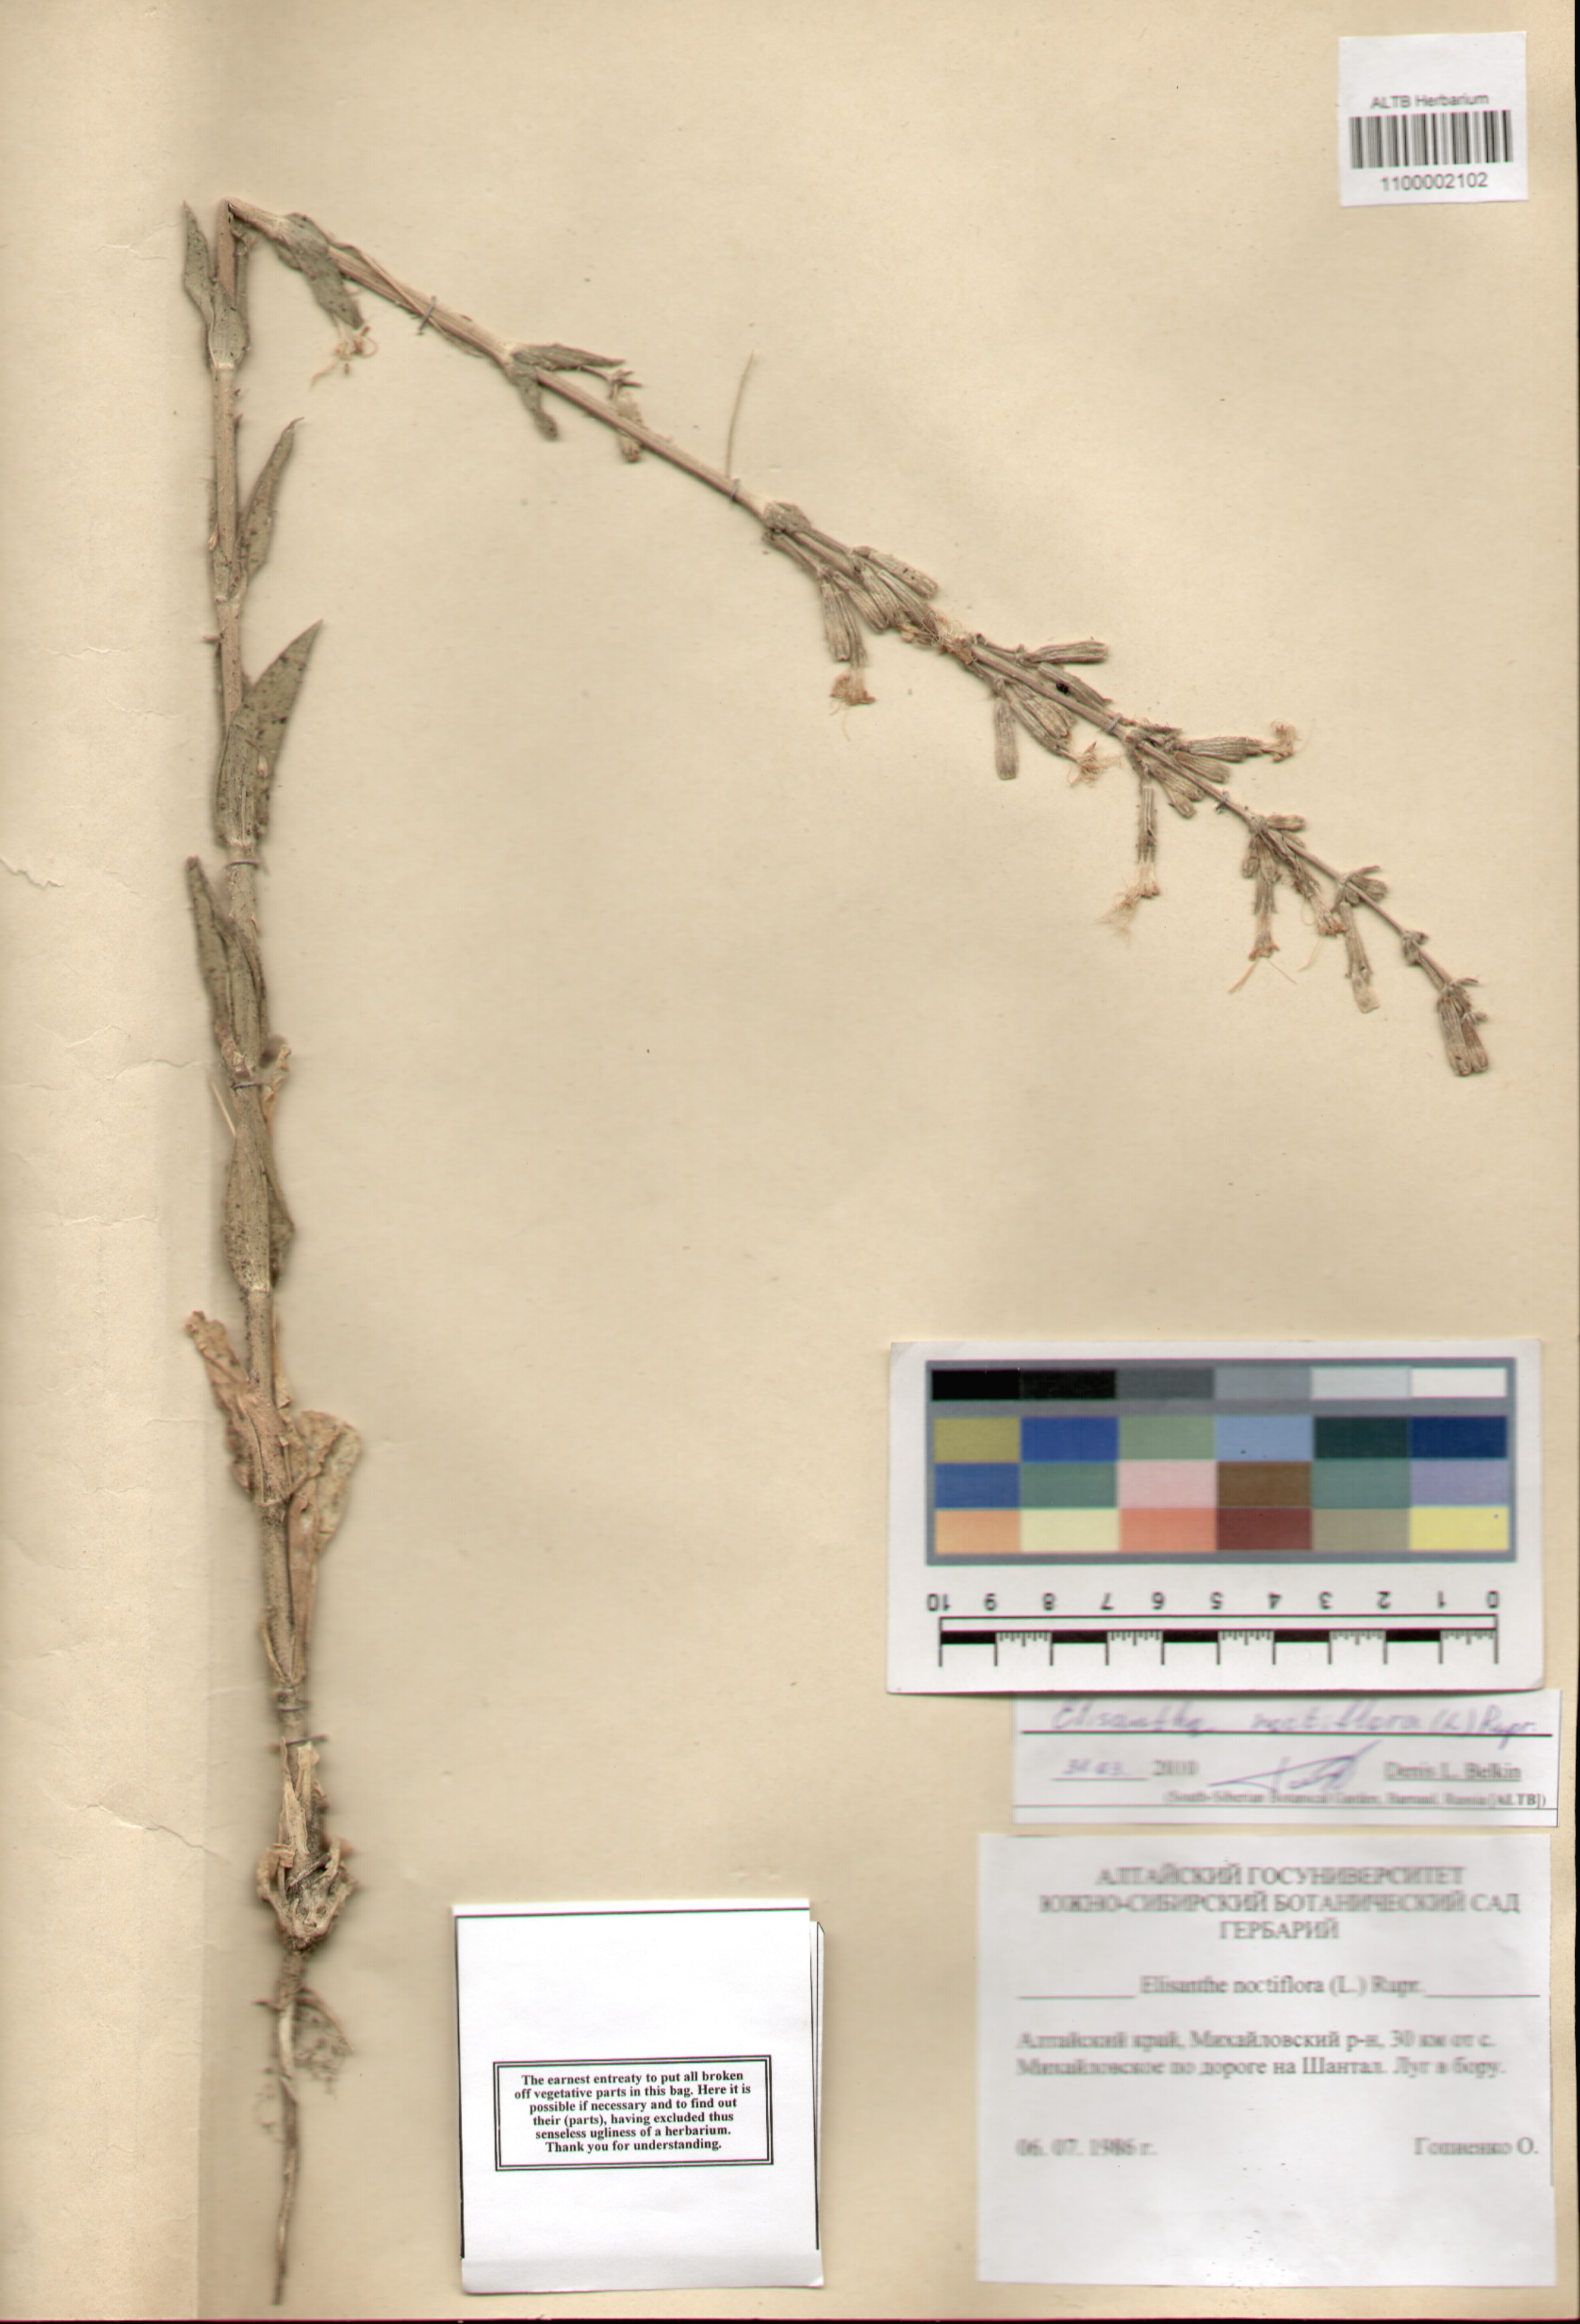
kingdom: Plantae
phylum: Tracheophyta
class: Magnoliopsida
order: Caryophyllales
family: Caryophyllaceae
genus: Silene
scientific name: Silene noctiflora
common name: Night-flowering catchfly
